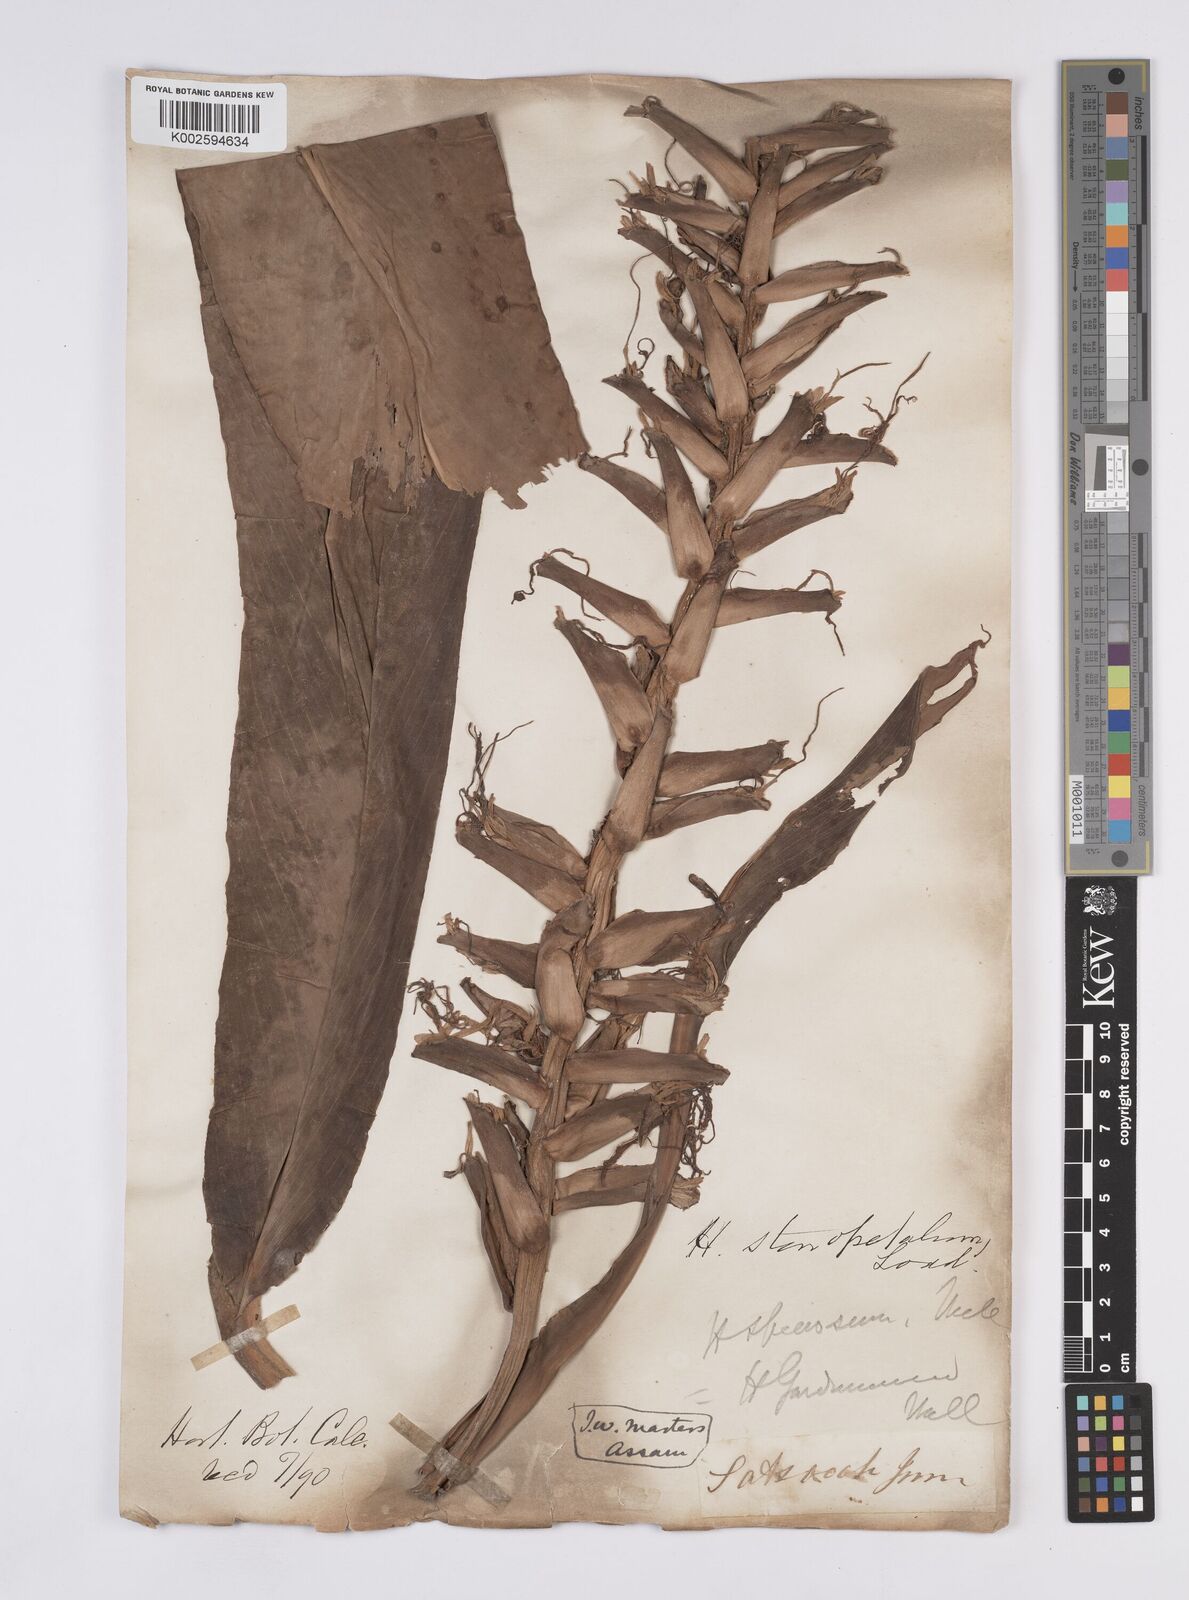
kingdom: Plantae
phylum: Tracheophyta
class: Liliopsida
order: Zingiberales
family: Zingiberaceae
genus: Hedychium
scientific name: Hedychium stenopetalum
